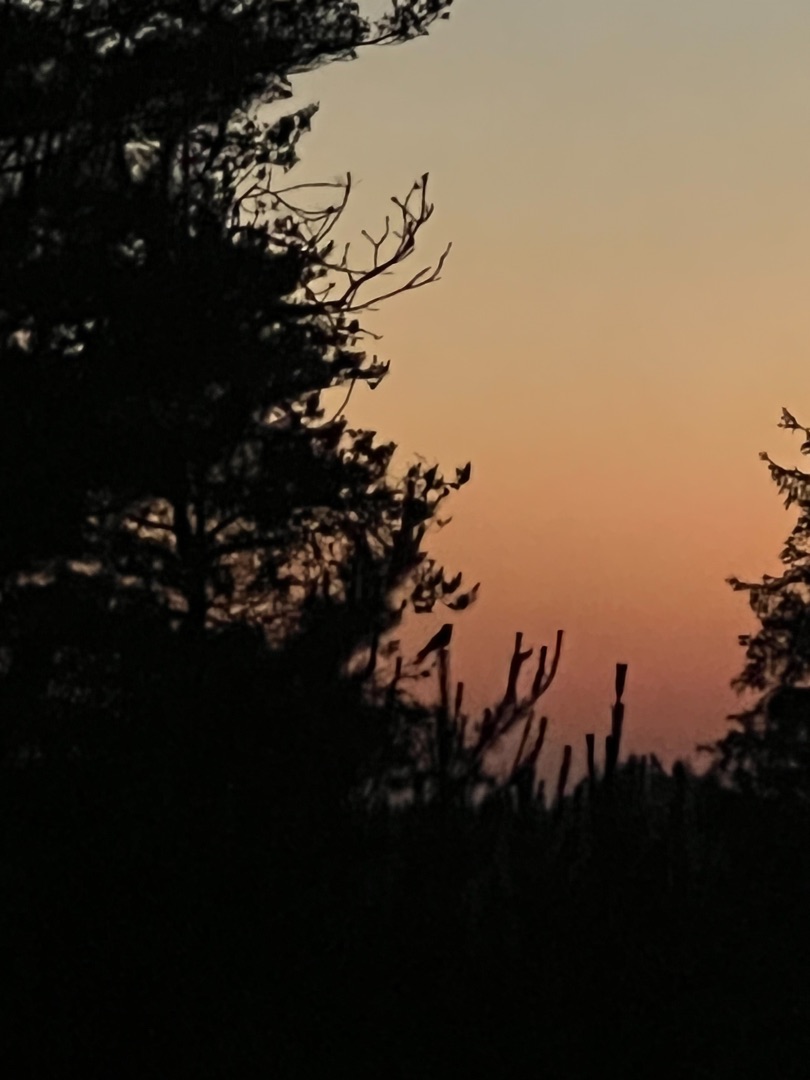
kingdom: Animalia
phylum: Chordata
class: Aves
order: Caprimulgiformes
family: Caprimulgidae
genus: Caprimulgus
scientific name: Caprimulgus europaeus
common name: Natravn
